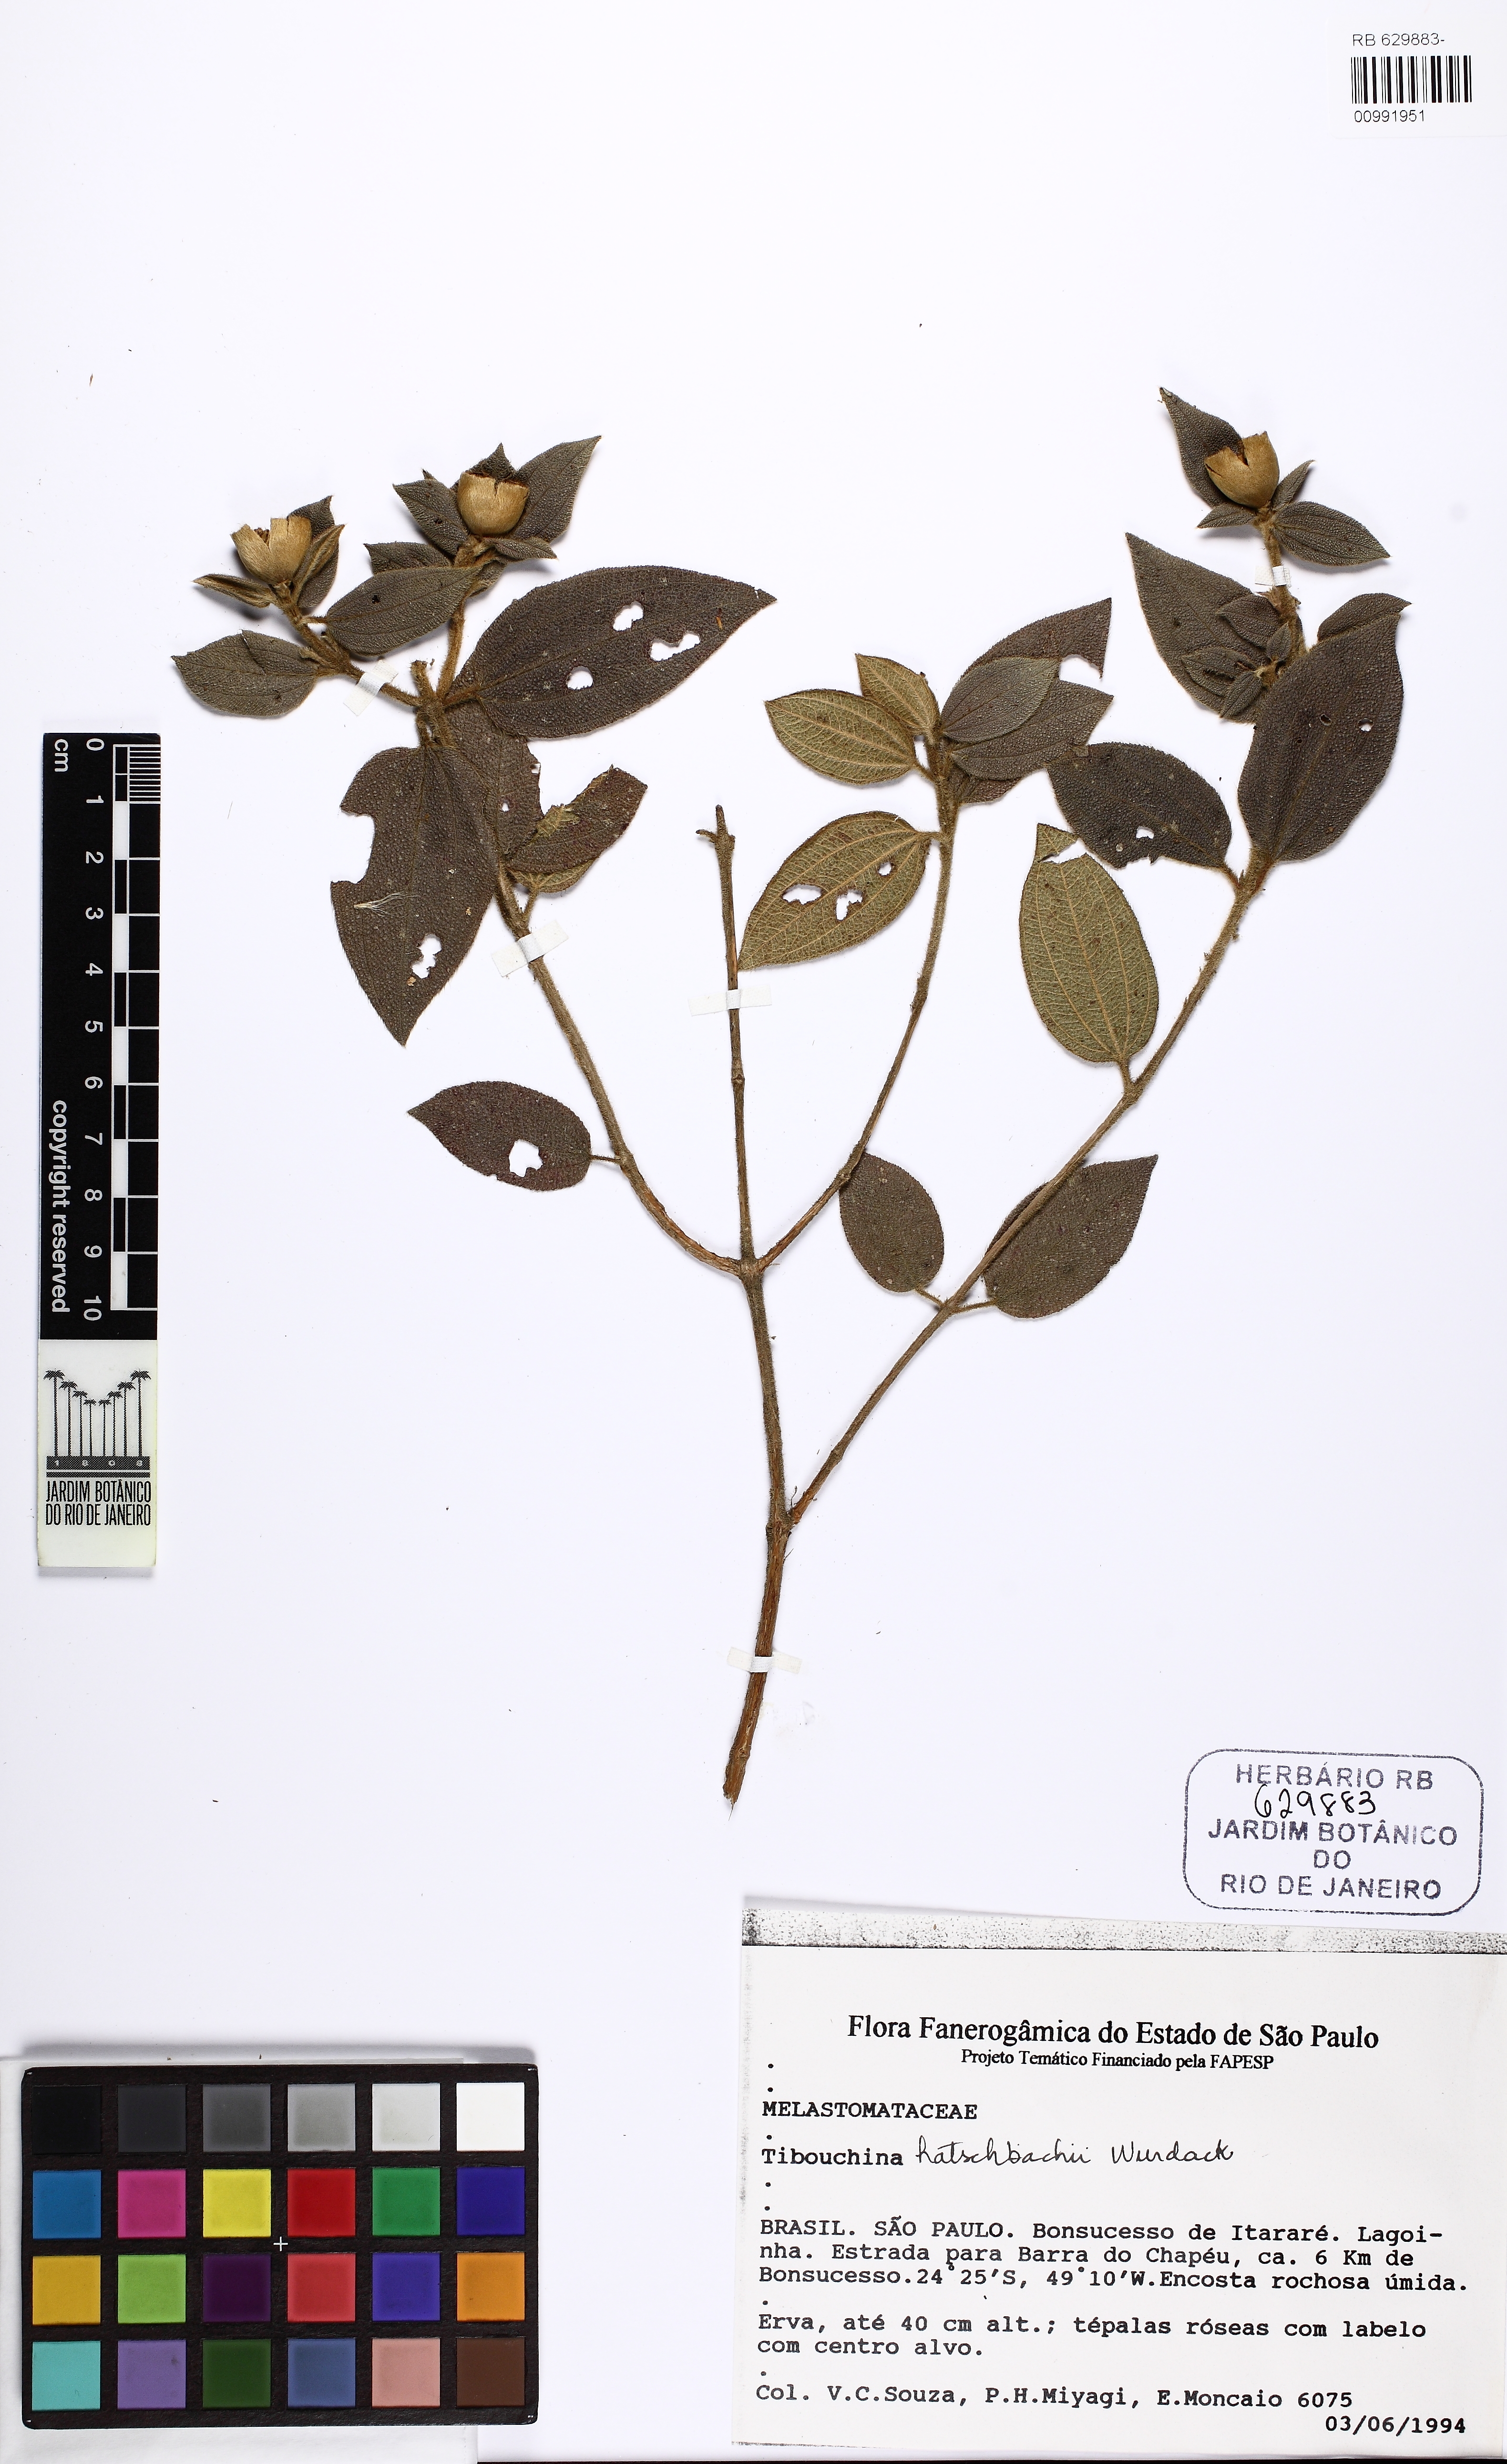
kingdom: Plantae
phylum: Tracheophyta
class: Magnoliopsida
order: Myrtales
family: Melastomataceae
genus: Pleroma
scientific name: Pleroma hatschbachii
